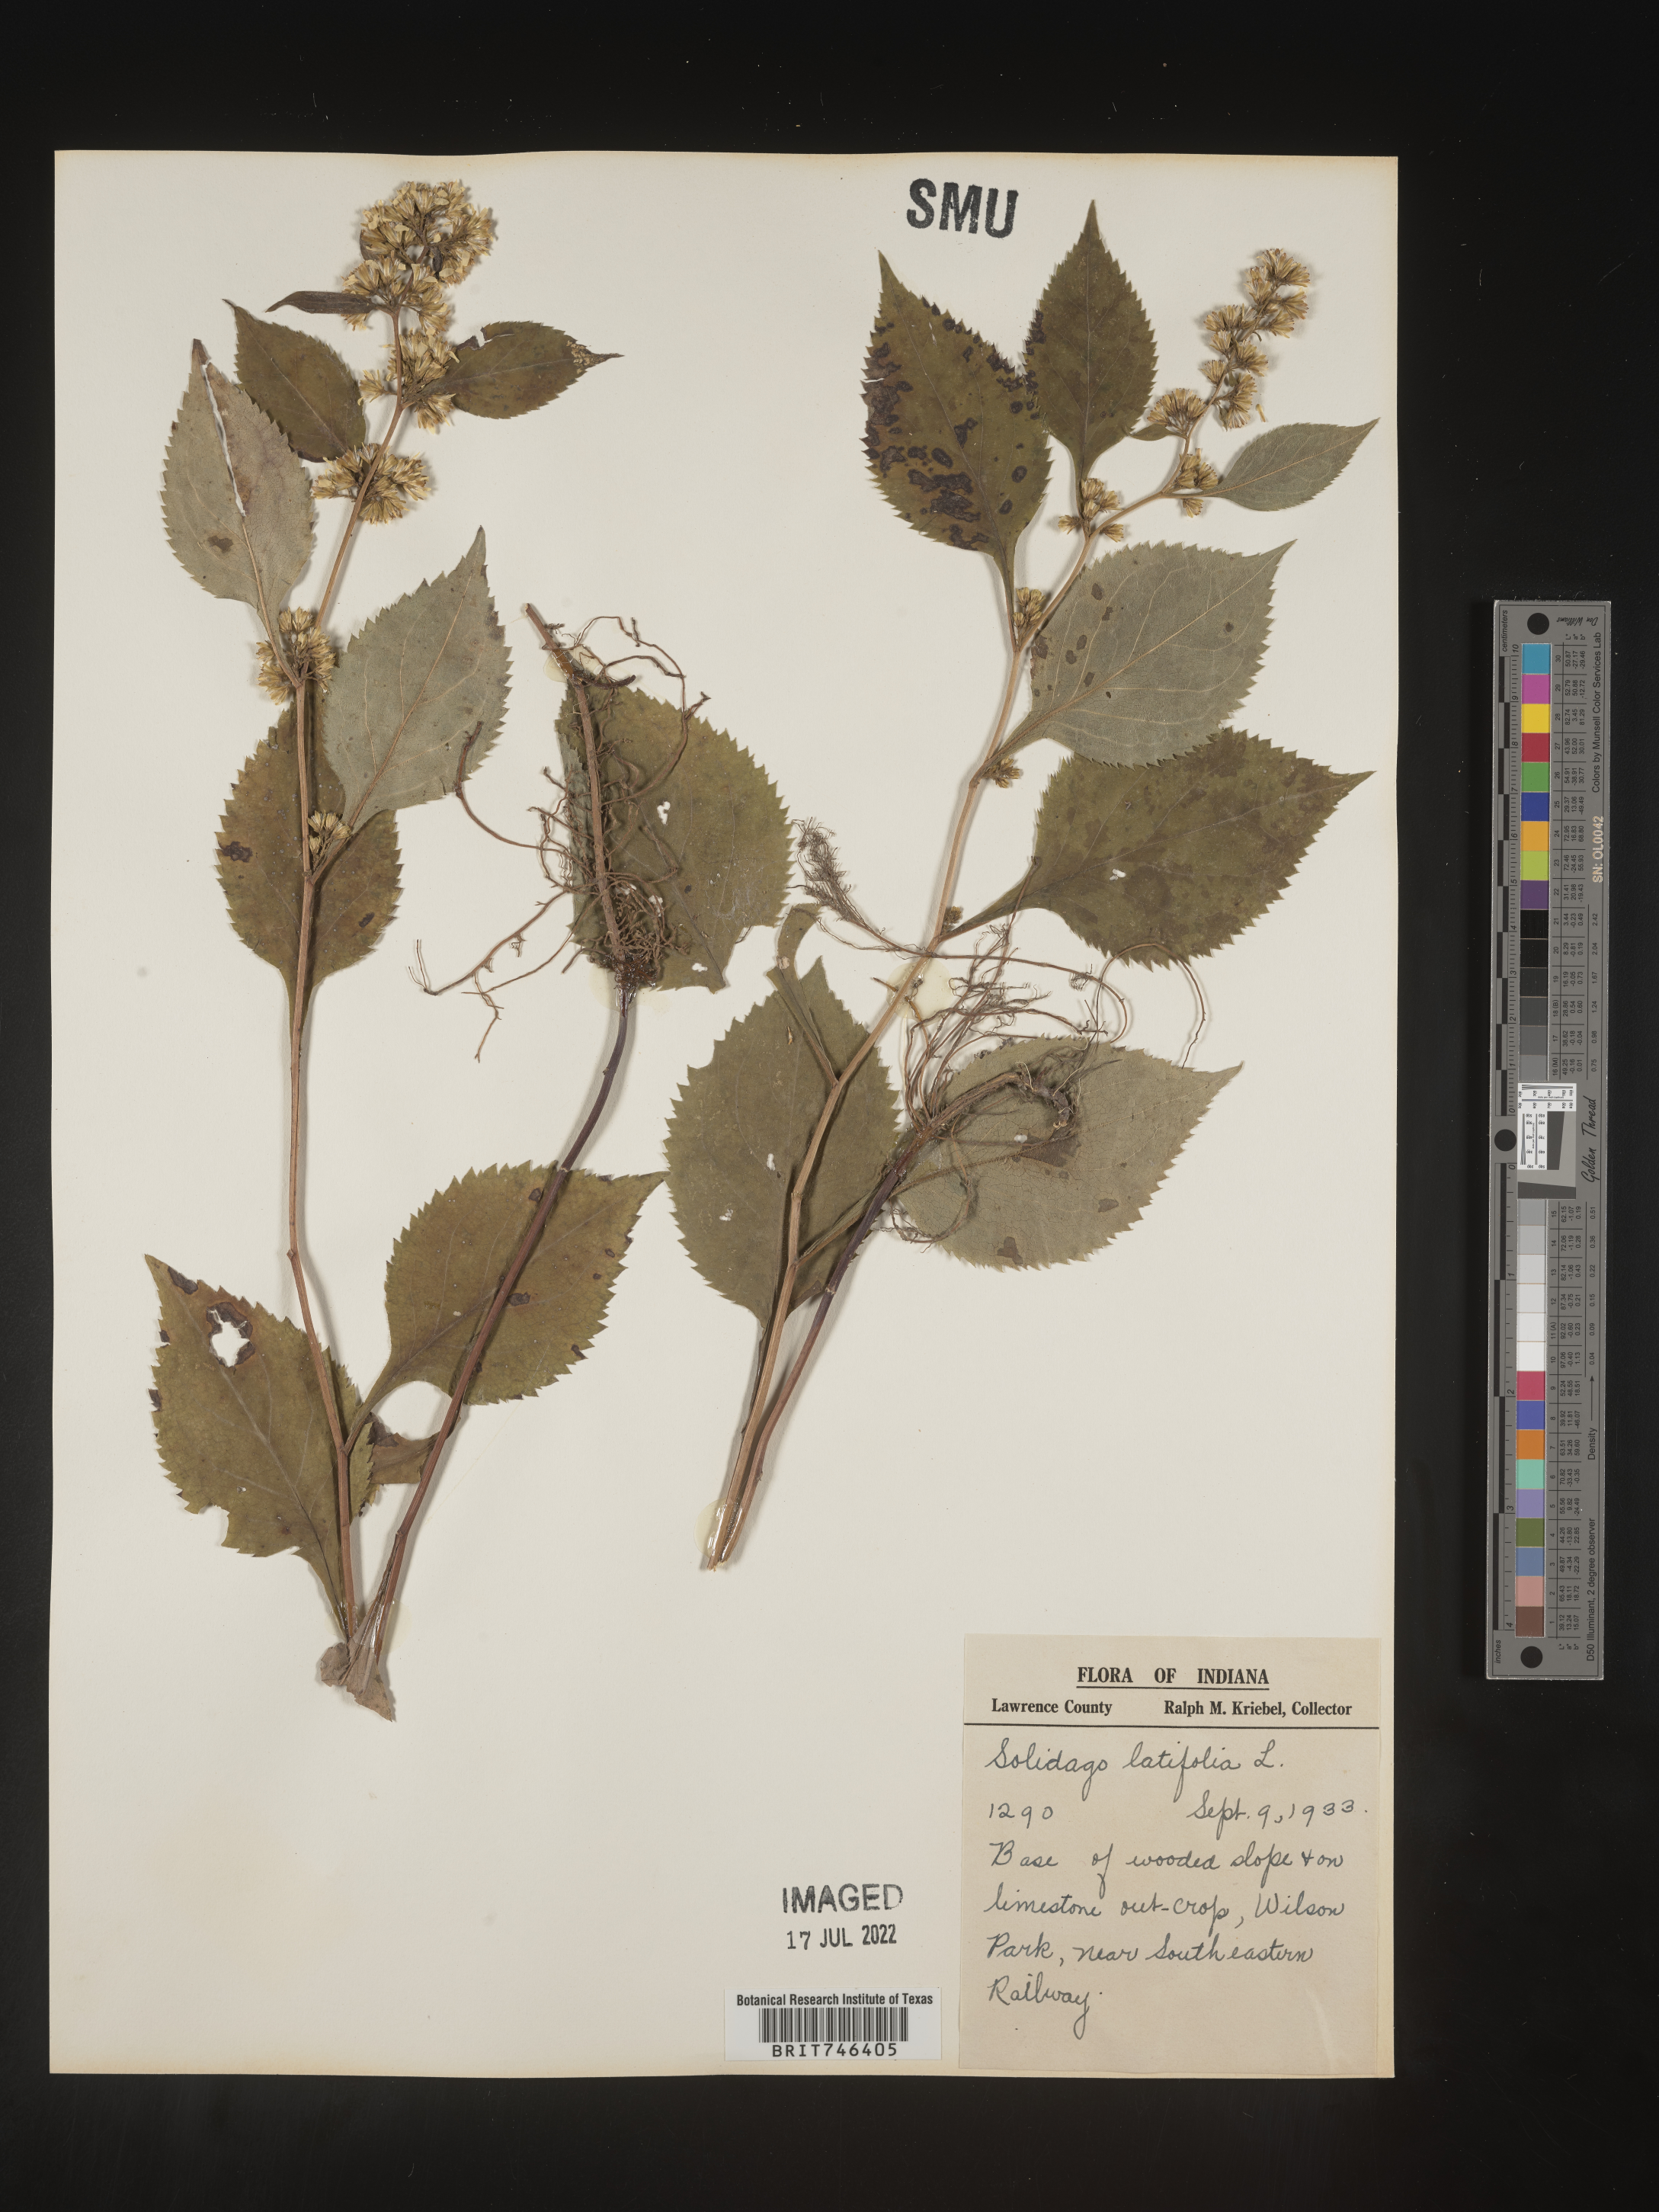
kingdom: Plantae
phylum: Tracheophyta
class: Magnoliopsida
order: Asterales
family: Asteraceae
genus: Solidago
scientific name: Solidago flexicaulis
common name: Zig-zag goldenrod
